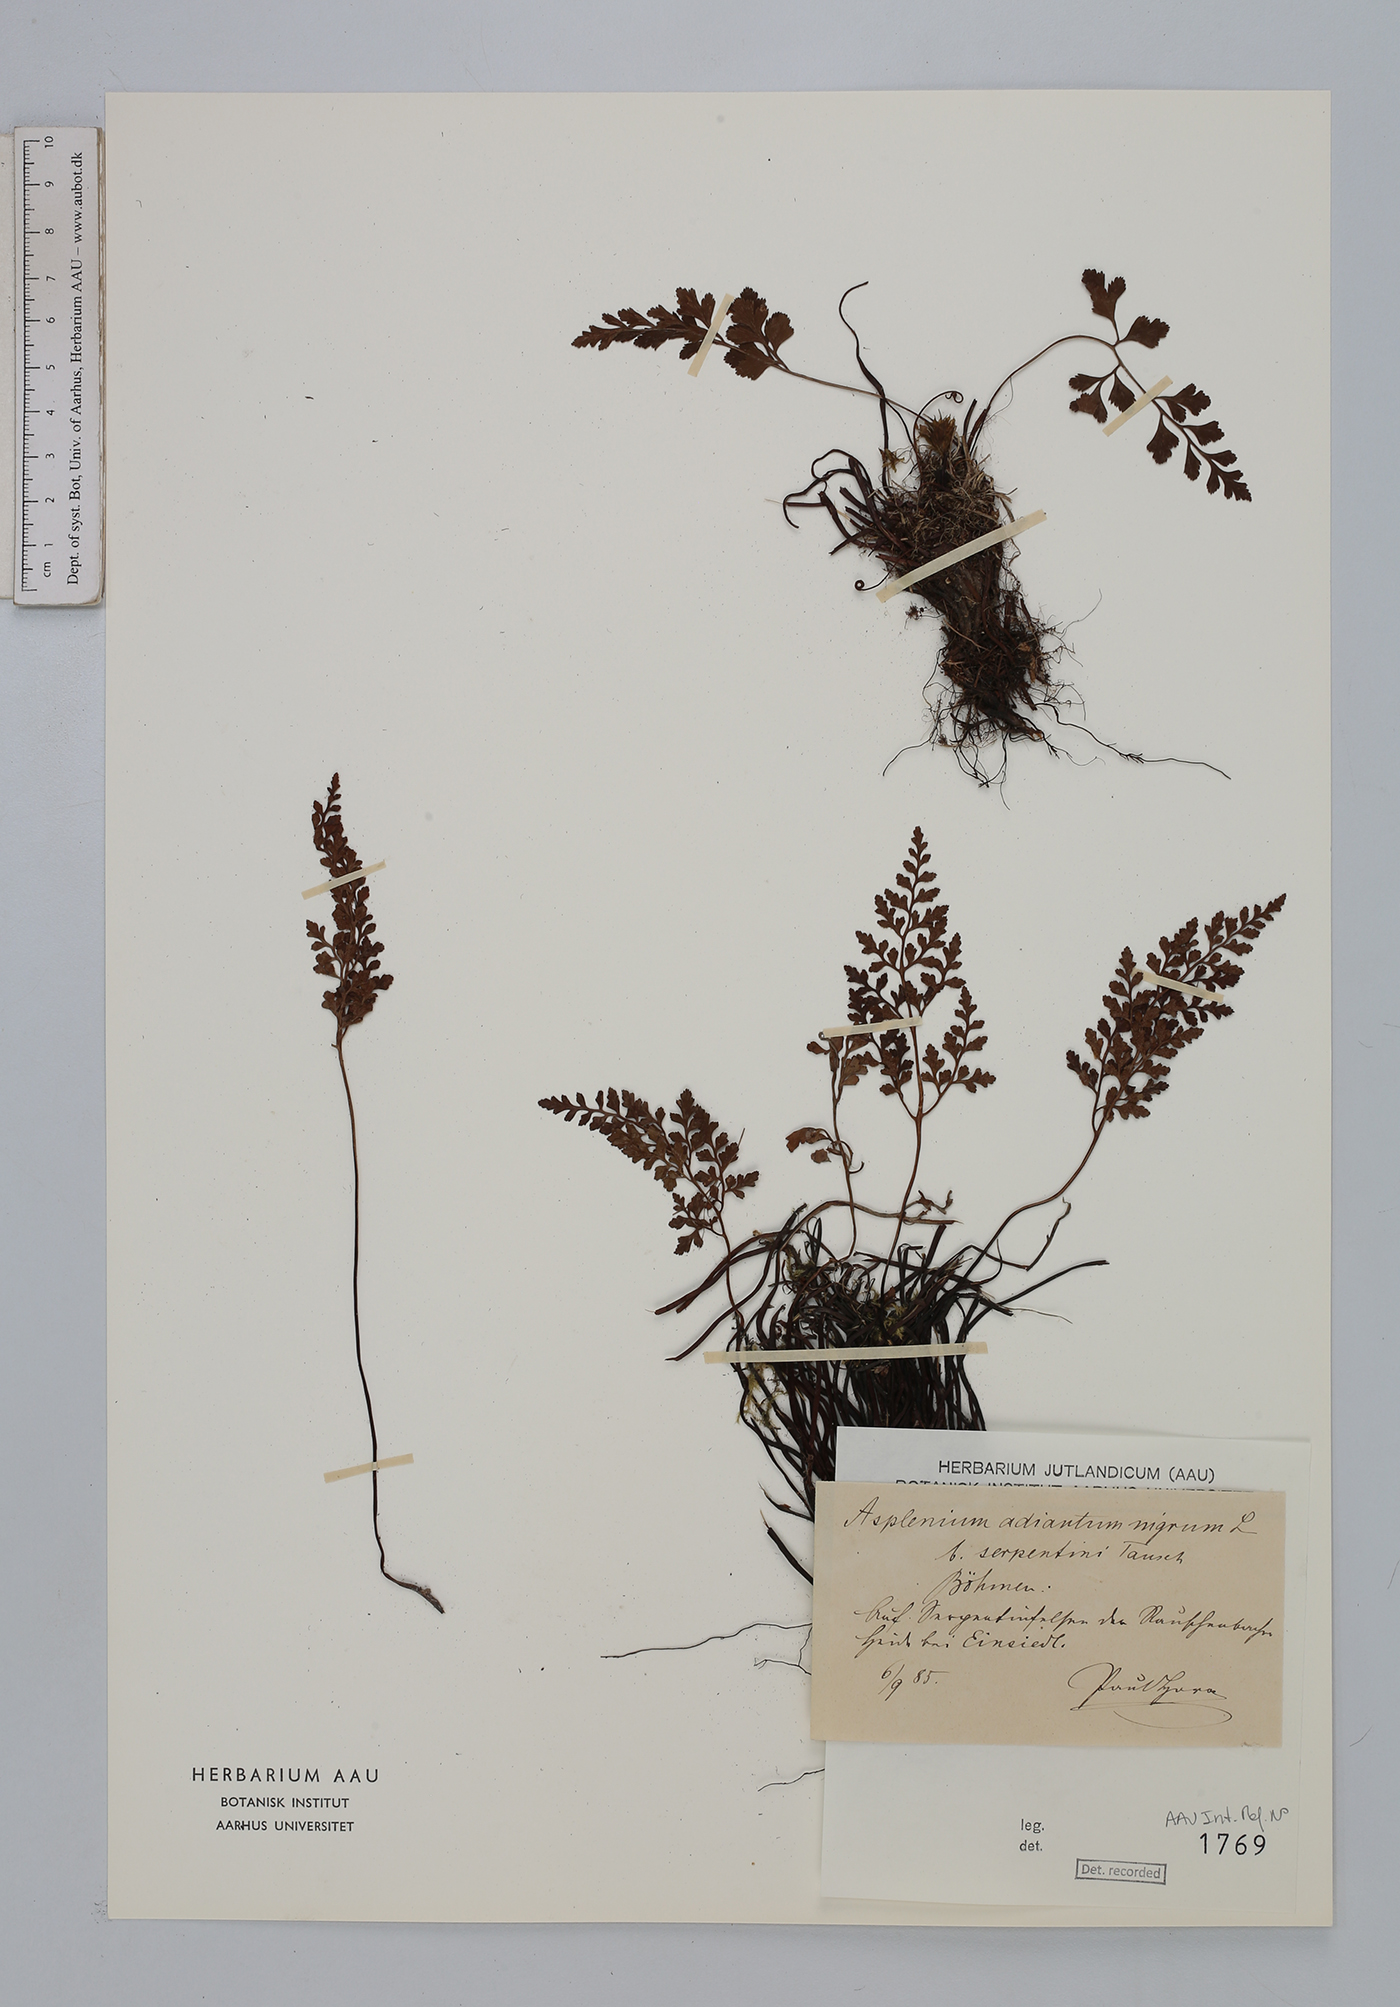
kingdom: Plantae
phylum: Tracheophyta
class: Polypodiopsida
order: Polypodiales
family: Aspleniaceae
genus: Asplenium
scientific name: Asplenium cuneifolium
